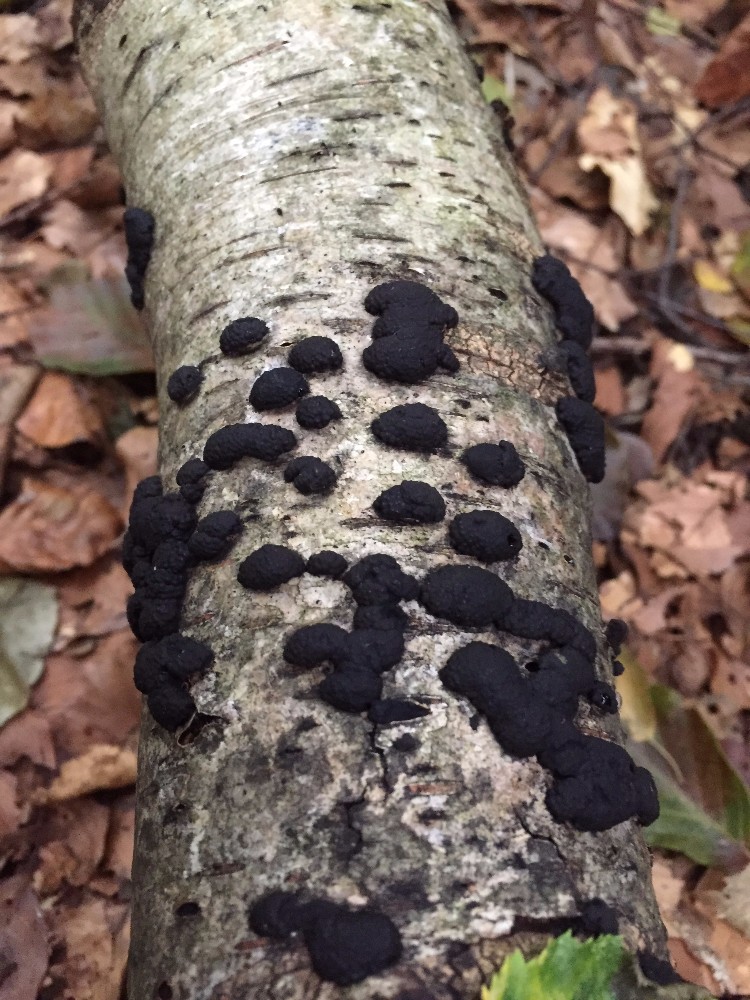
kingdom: Fungi
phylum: Ascomycota
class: Sordariomycetes
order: Xylariales
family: Hypoxylaceae
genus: Jackrogersella
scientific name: Jackrogersella multiformis
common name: foranderlig kulbær
